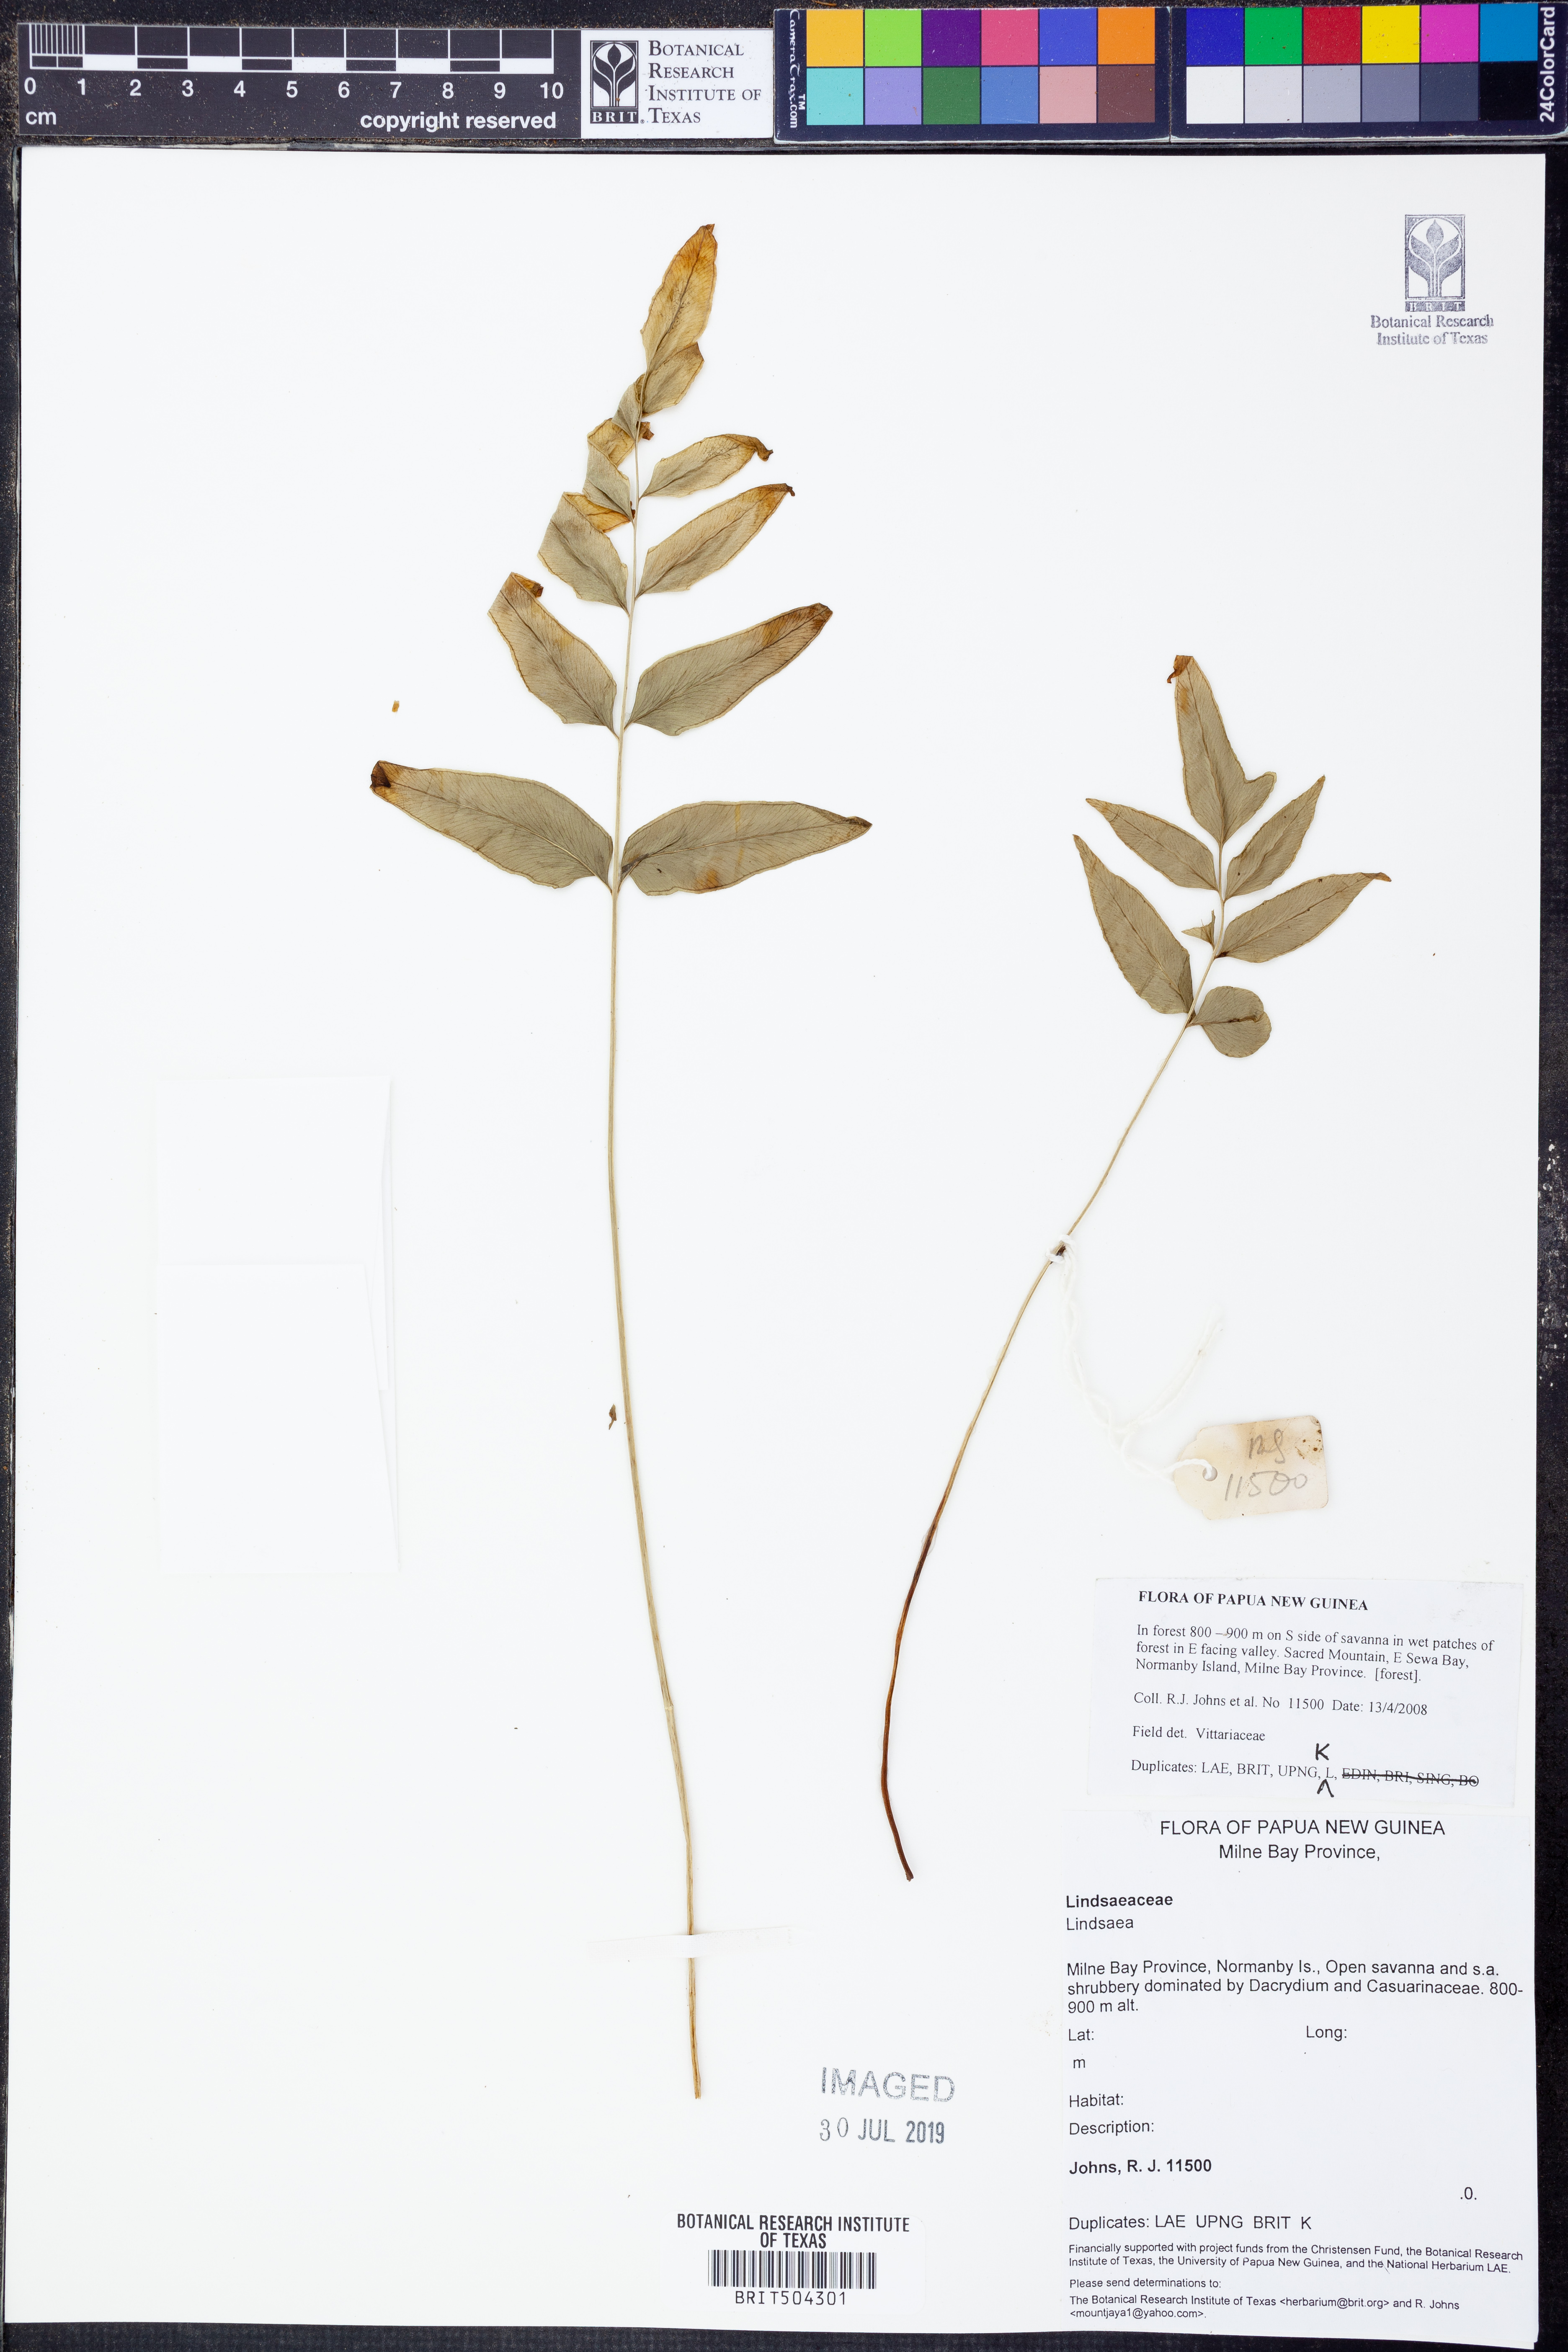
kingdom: Plantae
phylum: Tracheophyta
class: Polypodiopsida
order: Polypodiales
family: Lindsaeaceae
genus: Lindsaea
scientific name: Lindsaea
